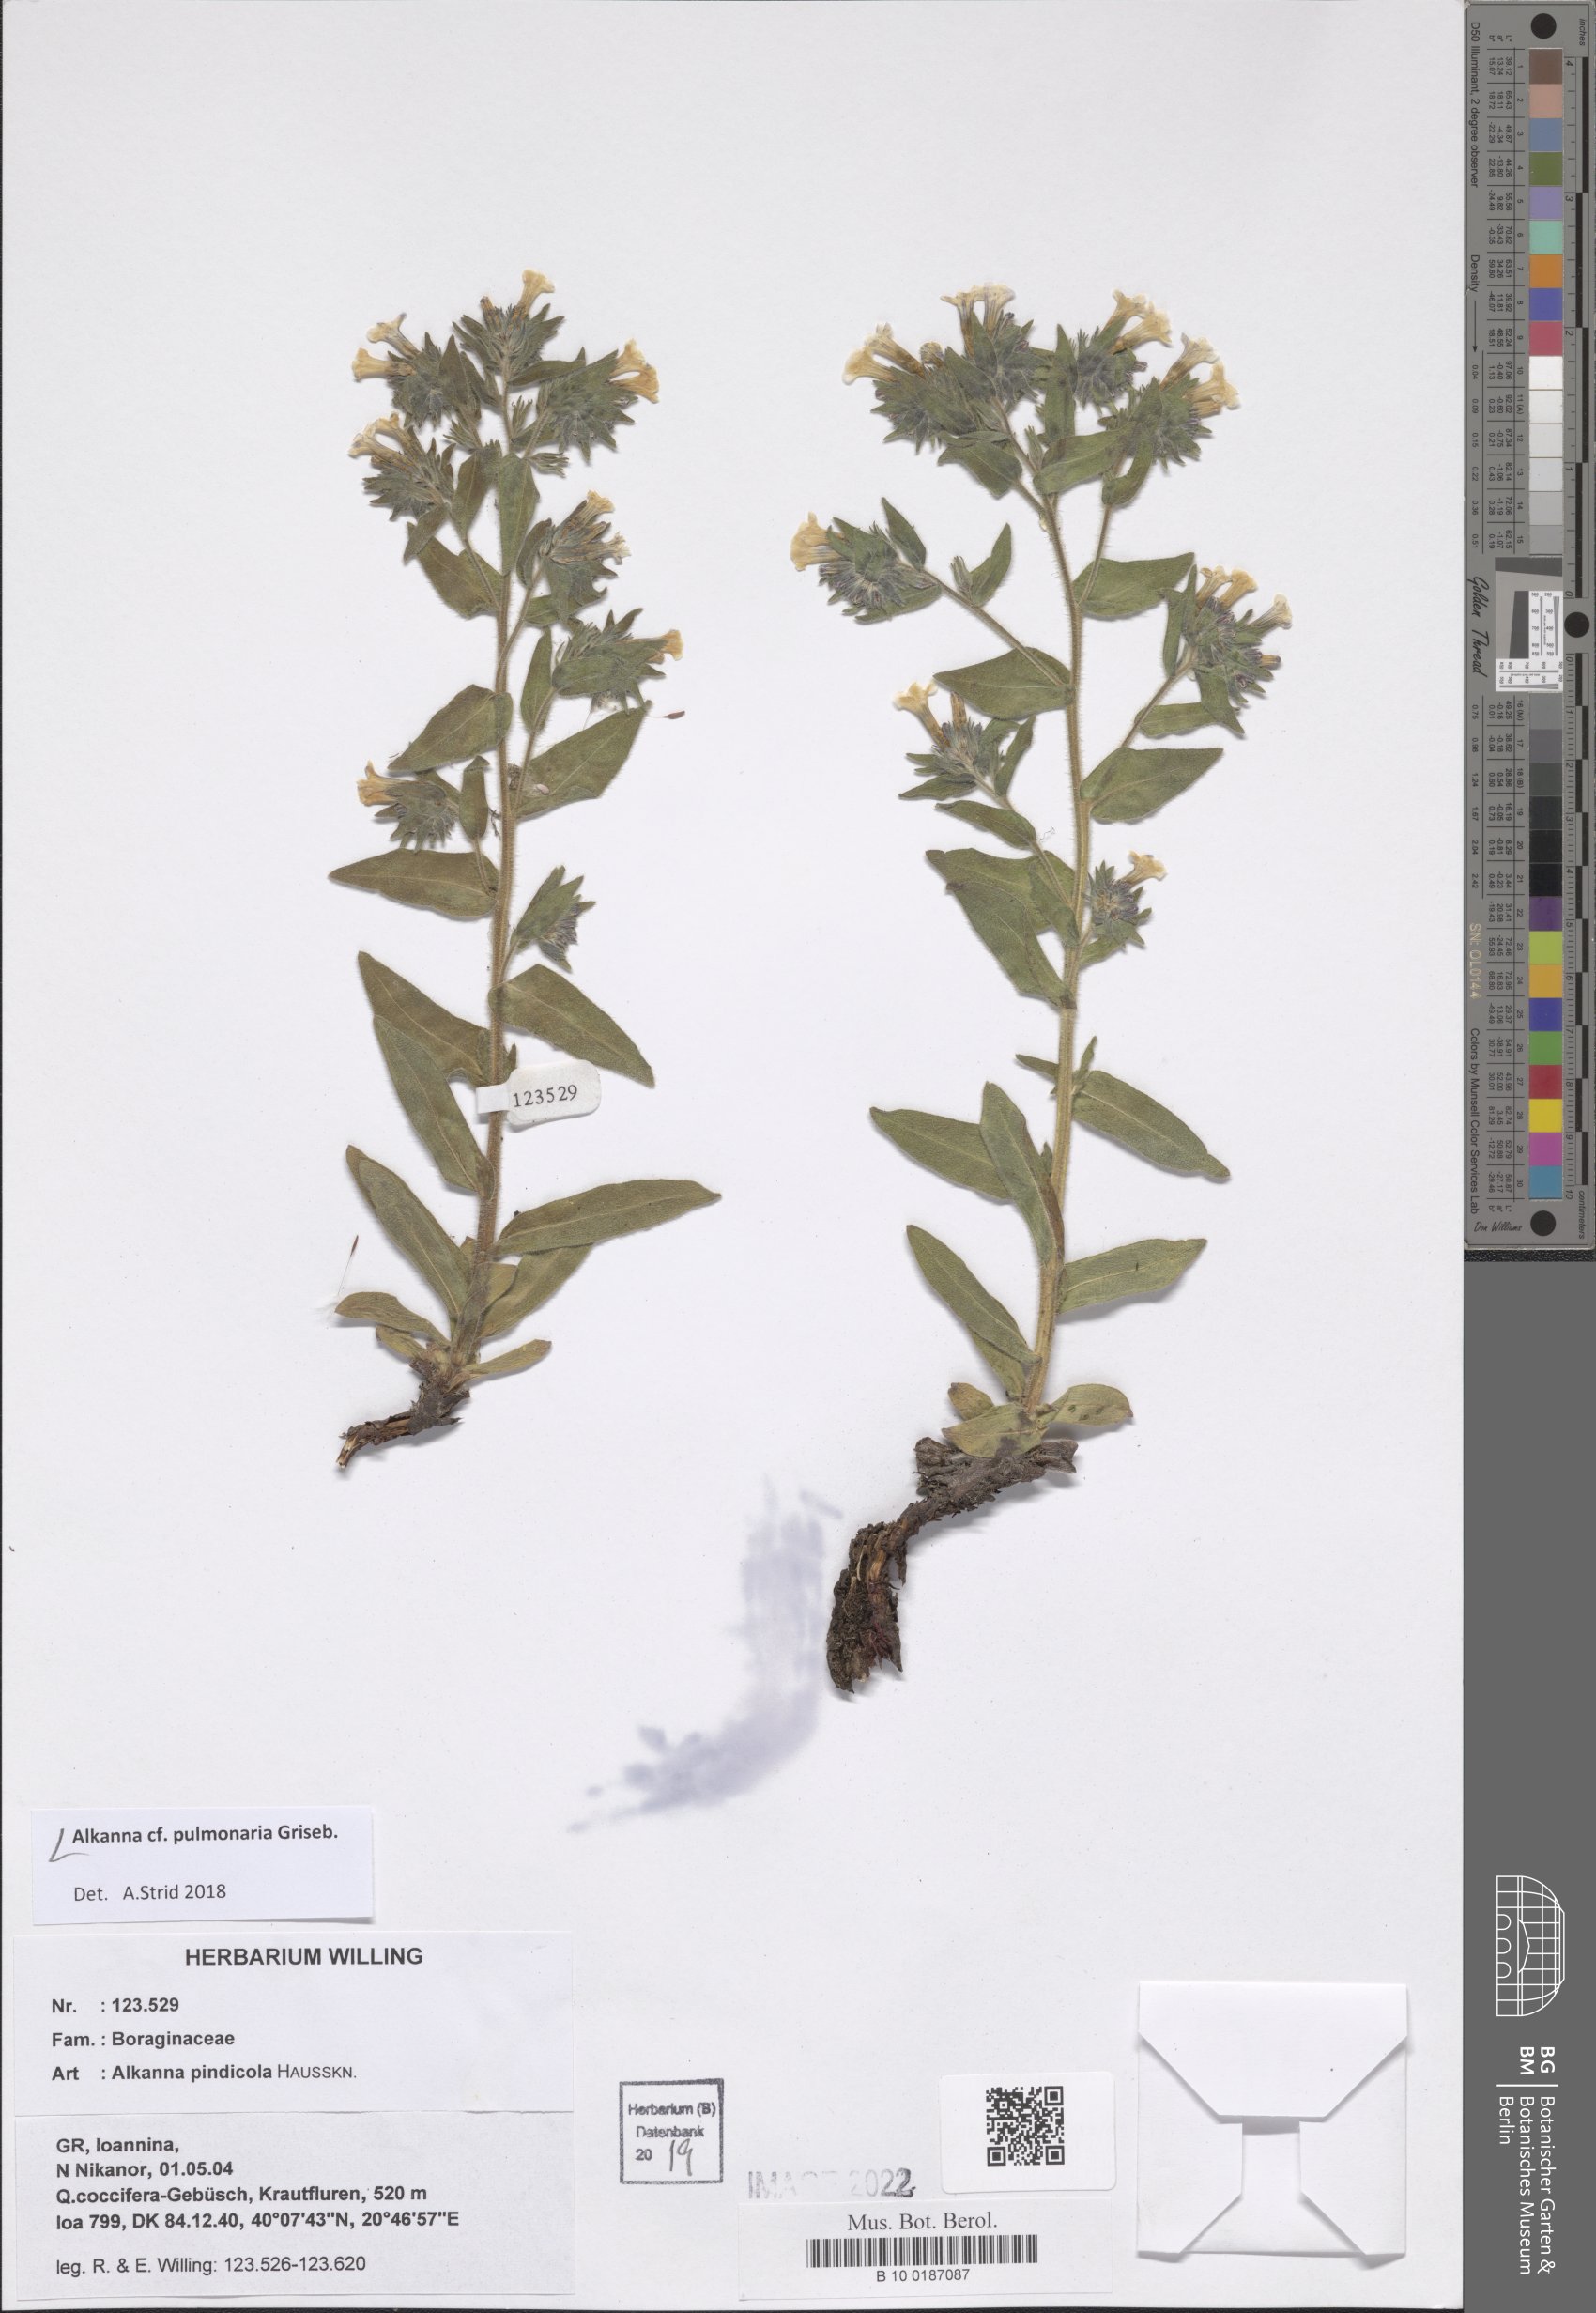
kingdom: Plantae
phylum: Tracheophyta
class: Magnoliopsida
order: Boraginales
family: Boraginaceae
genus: Alkanna
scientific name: Alkanna pulmonaria
